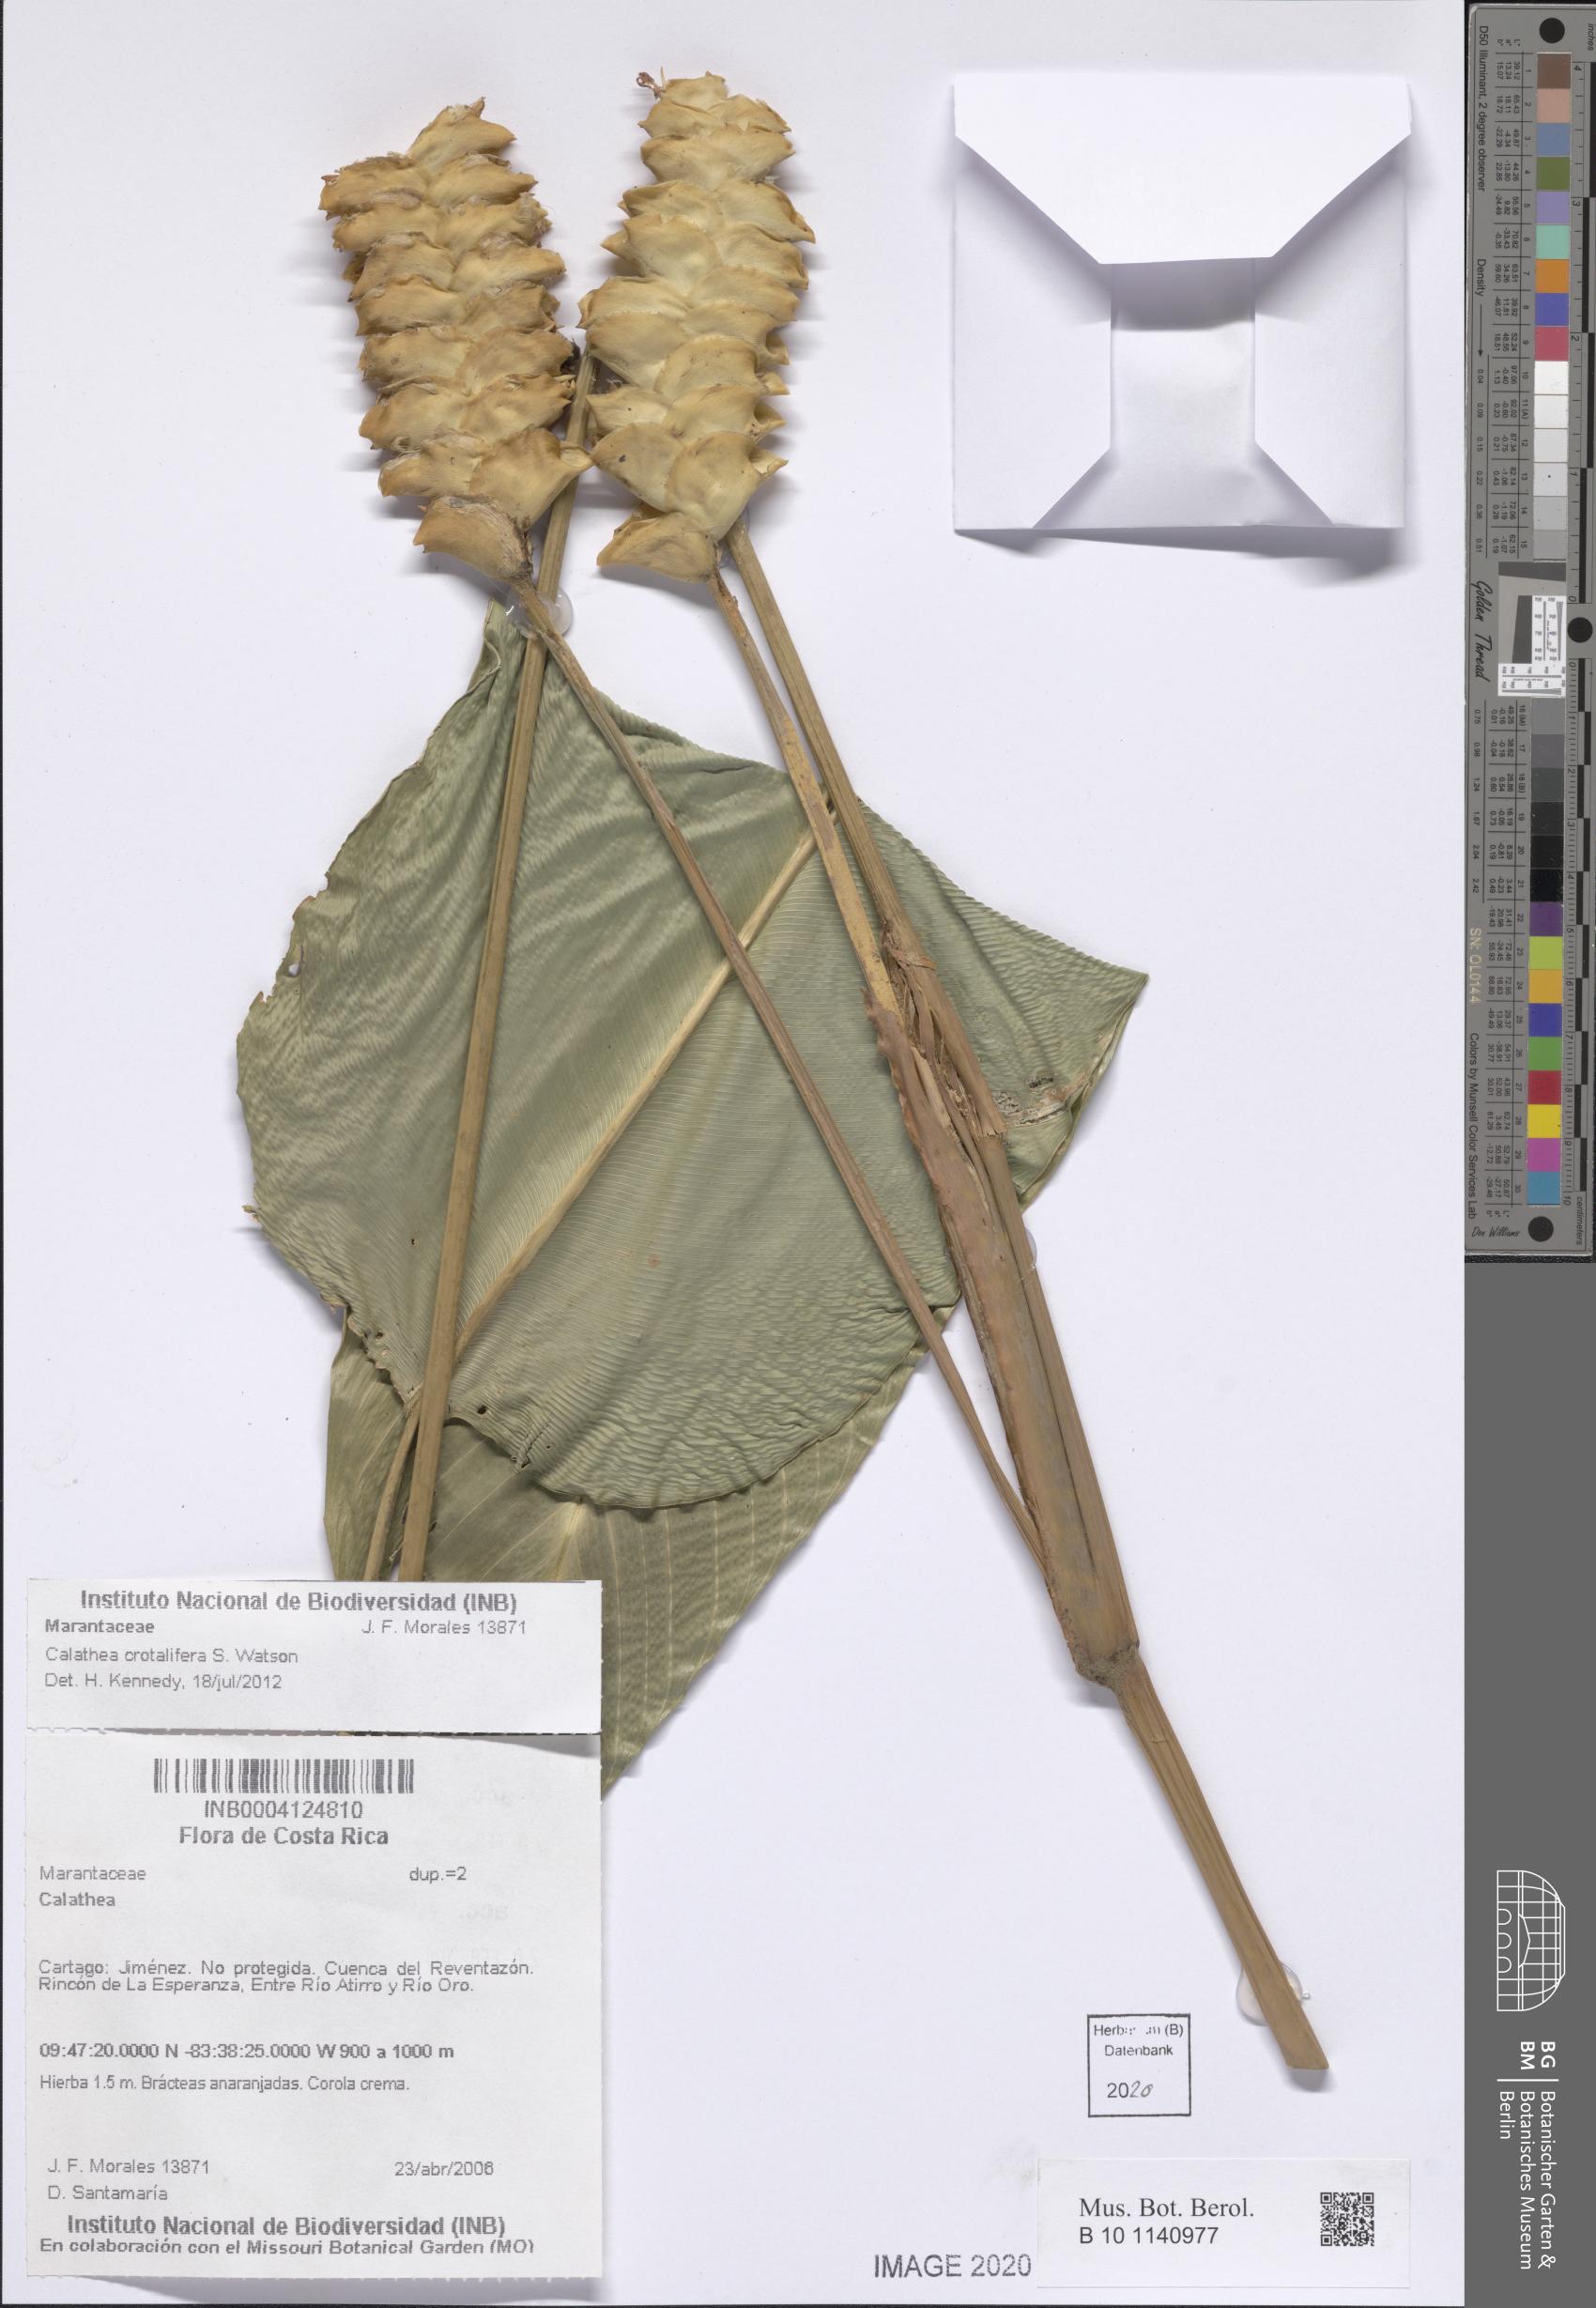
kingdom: Plantae
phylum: Tracheophyta
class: Liliopsida
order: Zingiberales
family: Marantaceae
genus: Calathea
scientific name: Calathea crotalifera
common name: Rattlesnake plant
